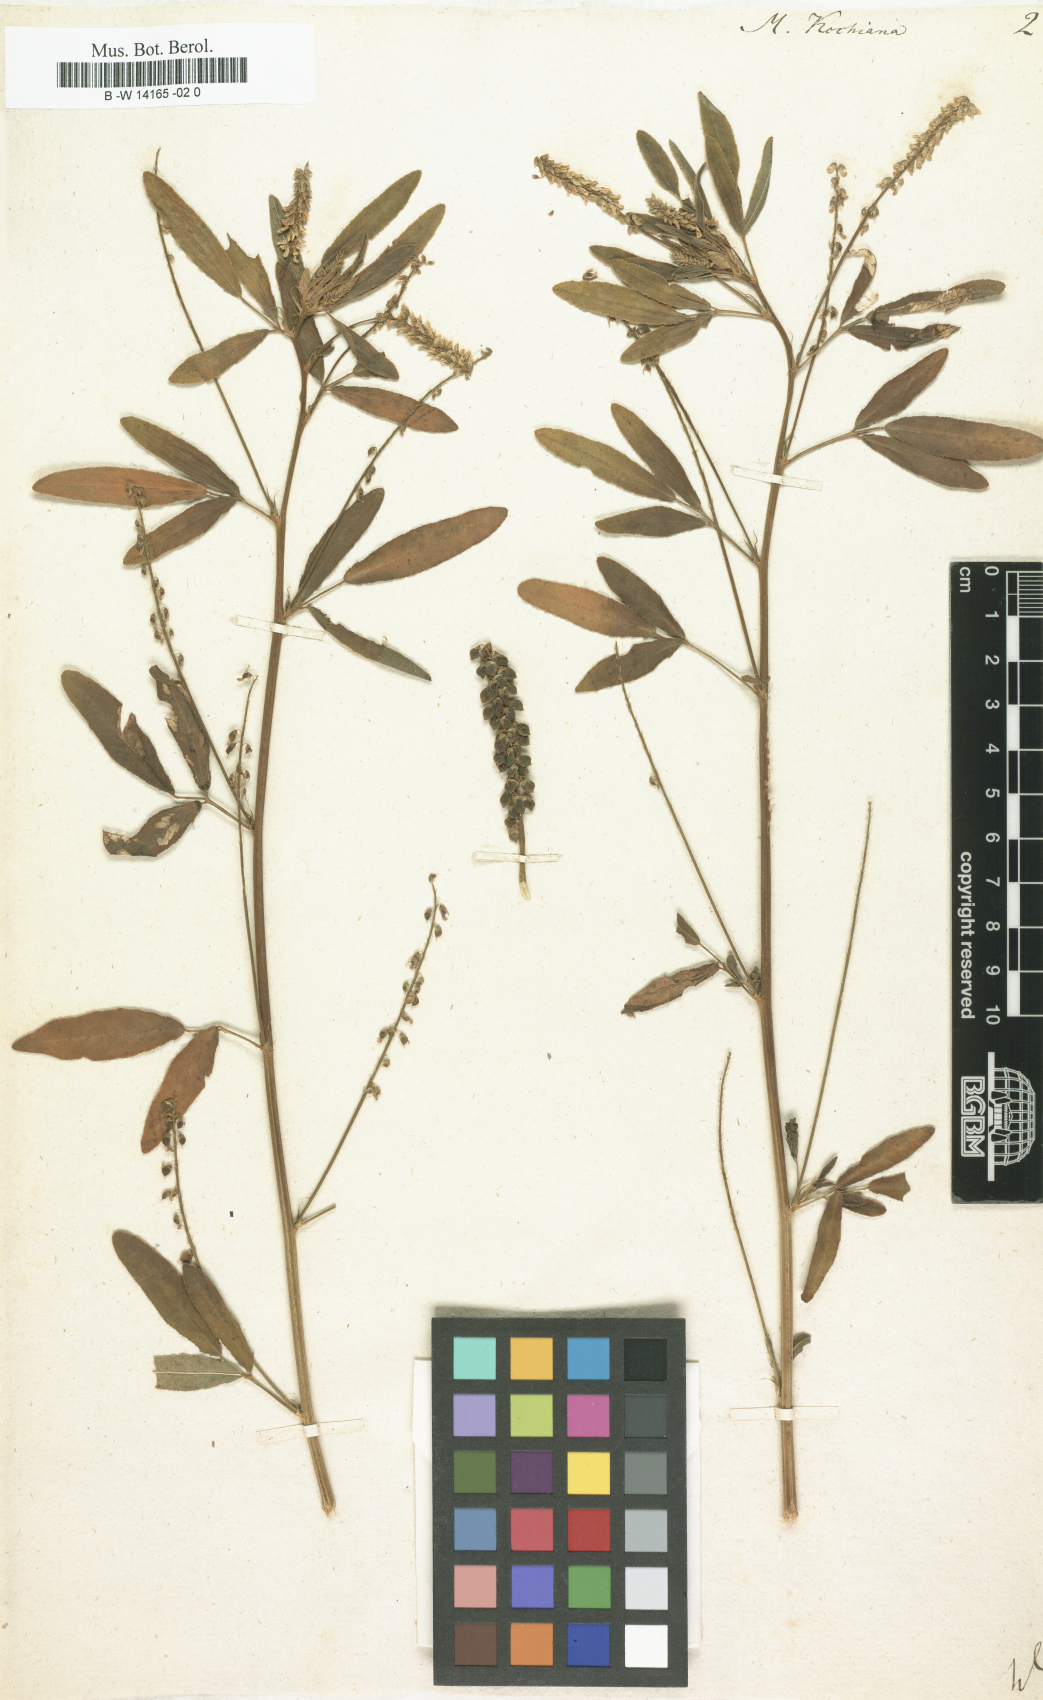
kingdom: Plantae
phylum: Tracheophyta
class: Magnoliopsida
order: Fabales
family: Fabaceae
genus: Melilotus
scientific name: Melilotus
